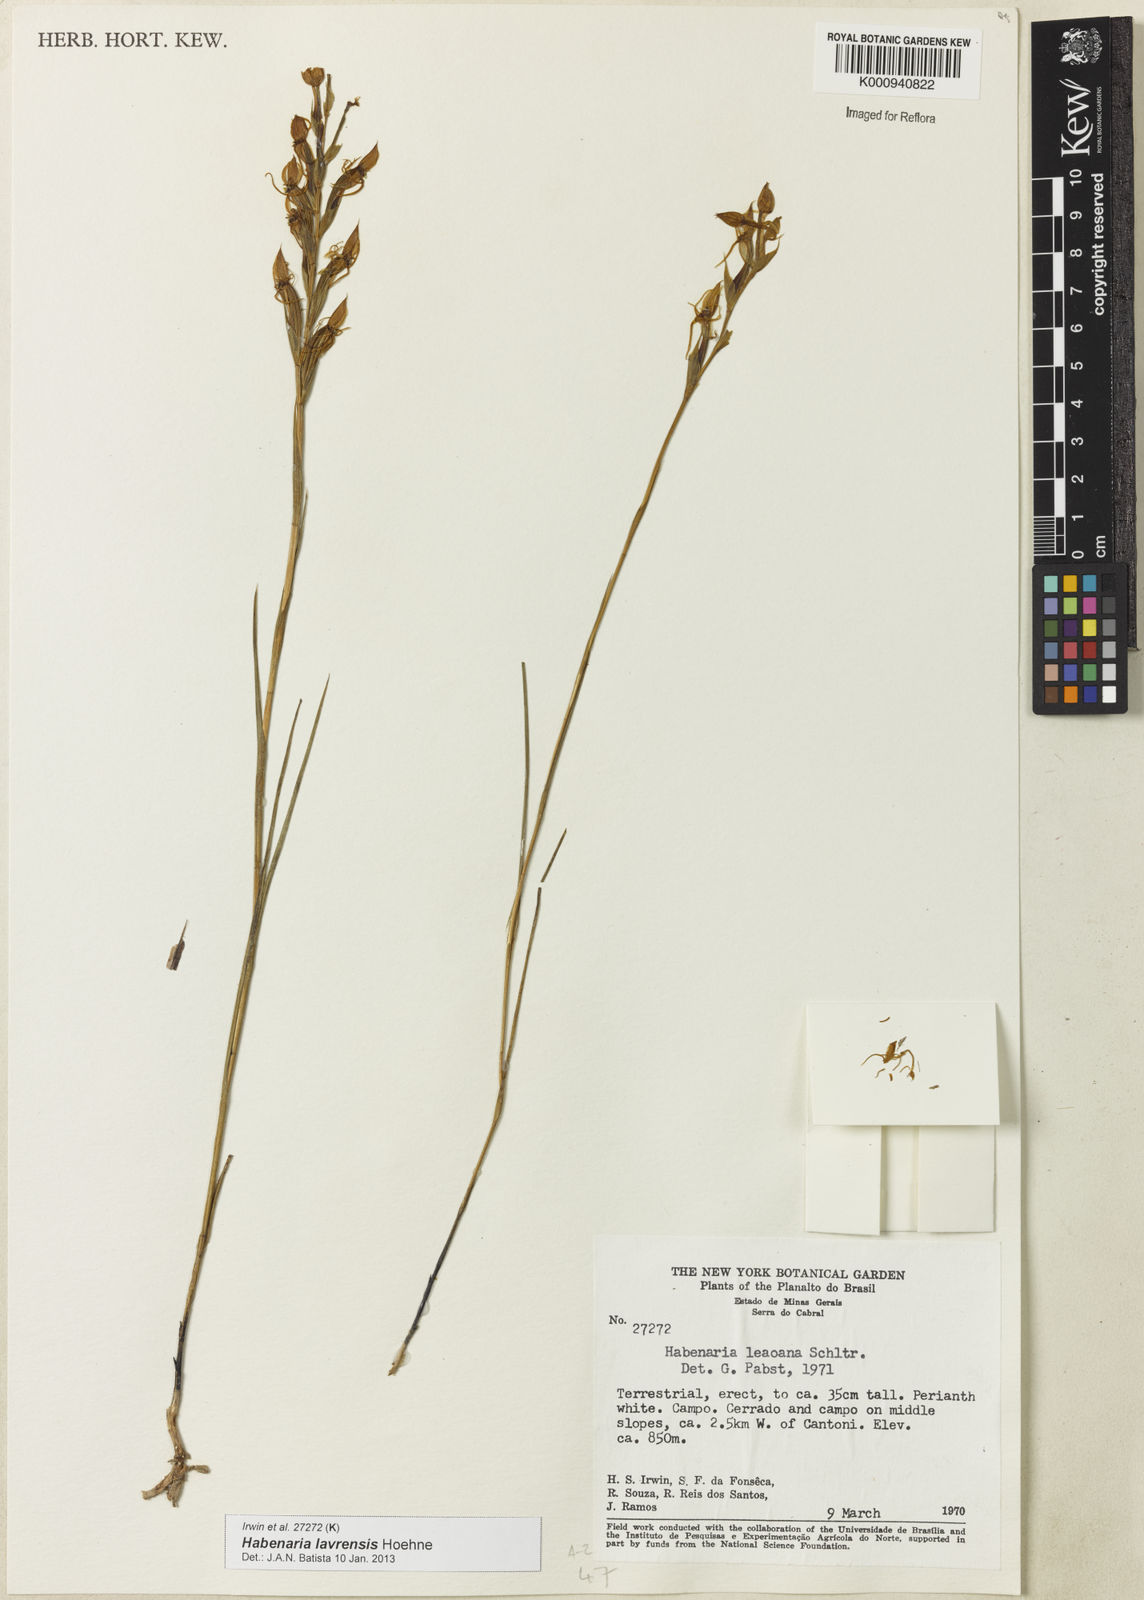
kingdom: Plantae
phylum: Tracheophyta
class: Liliopsida
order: Asparagales
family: Orchidaceae
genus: Habenaria
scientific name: Habenaria lavrensis
